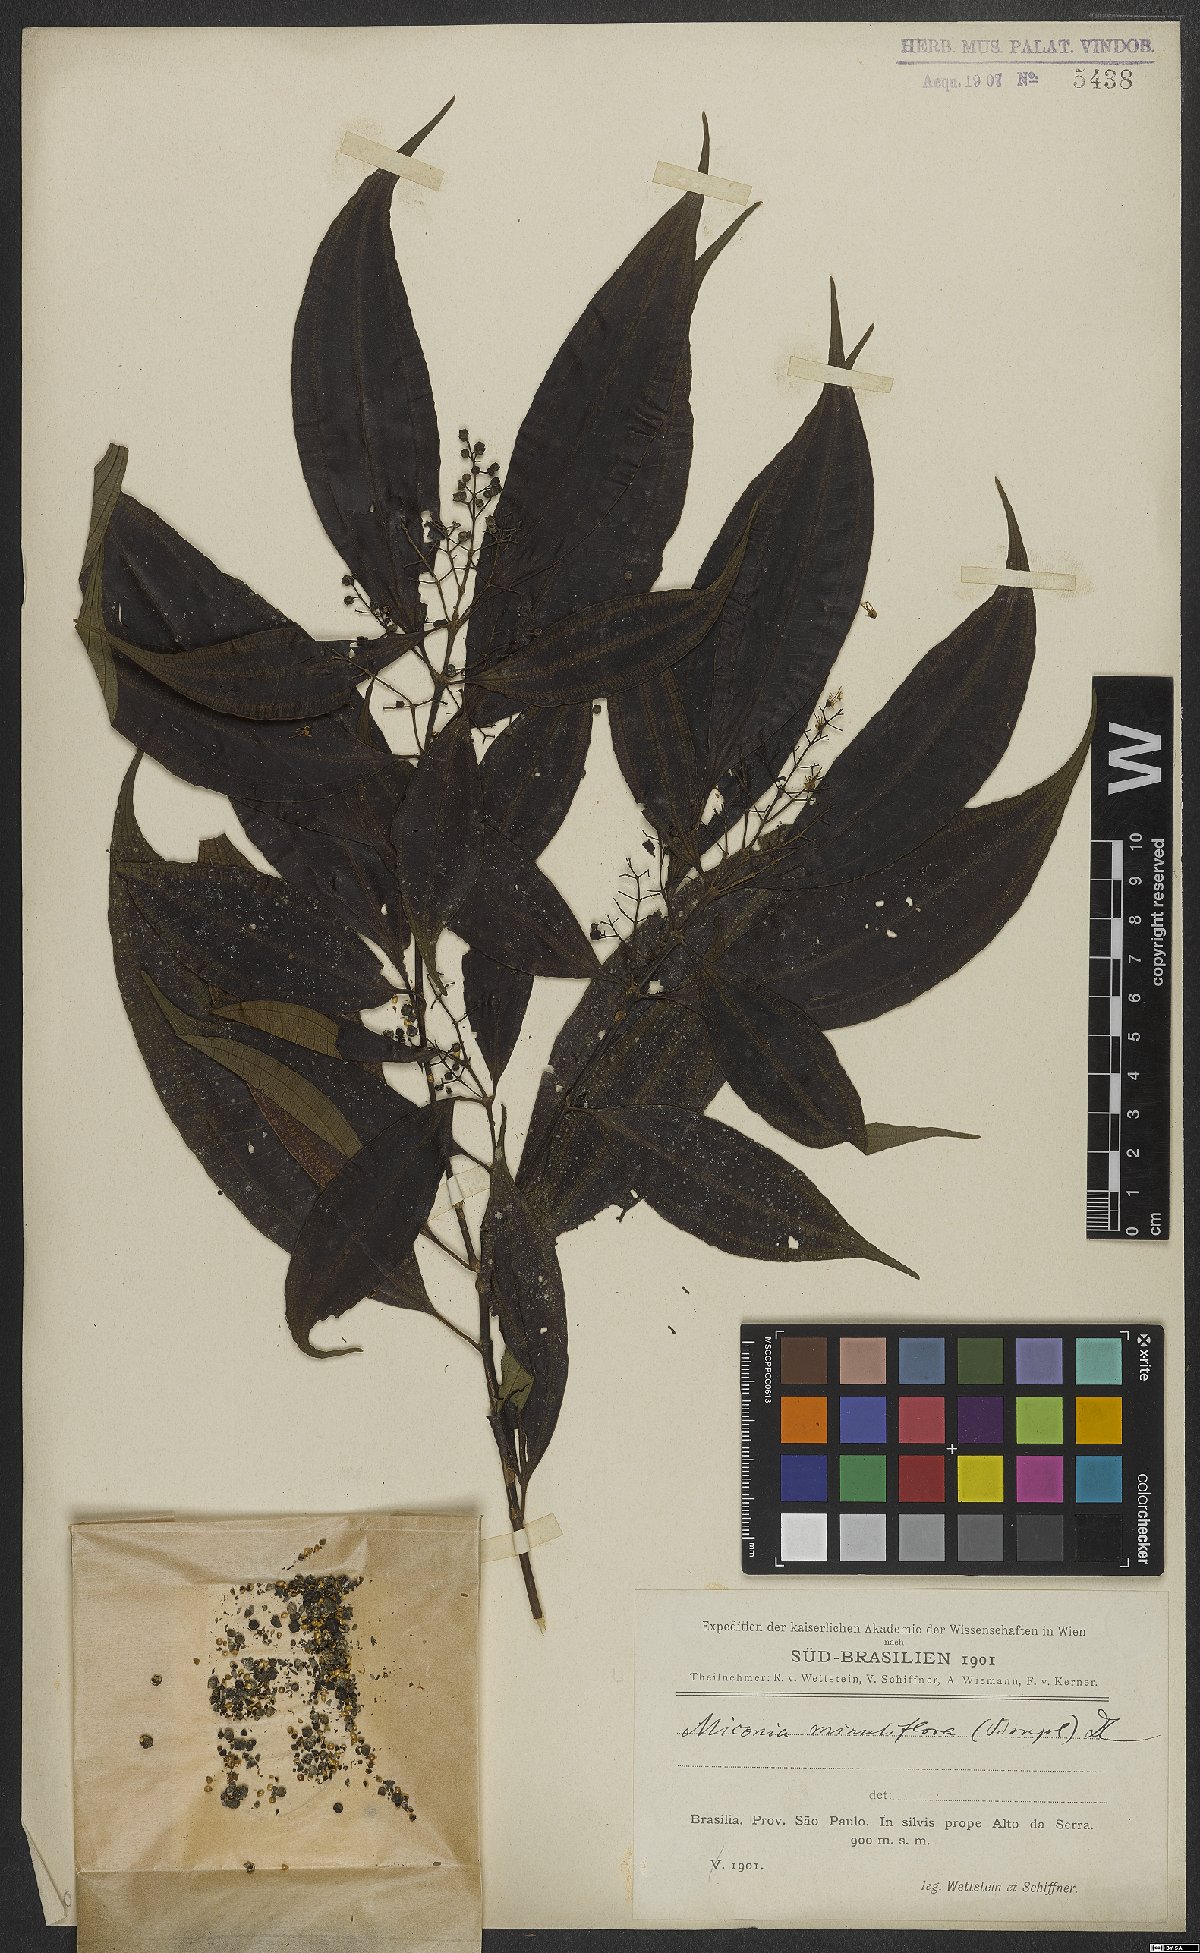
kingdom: Plantae
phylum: Tracheophyta
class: Magnoliopsida
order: Myrtales
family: Melastomataceae
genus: Miconia
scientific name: Miconia minutiflora
